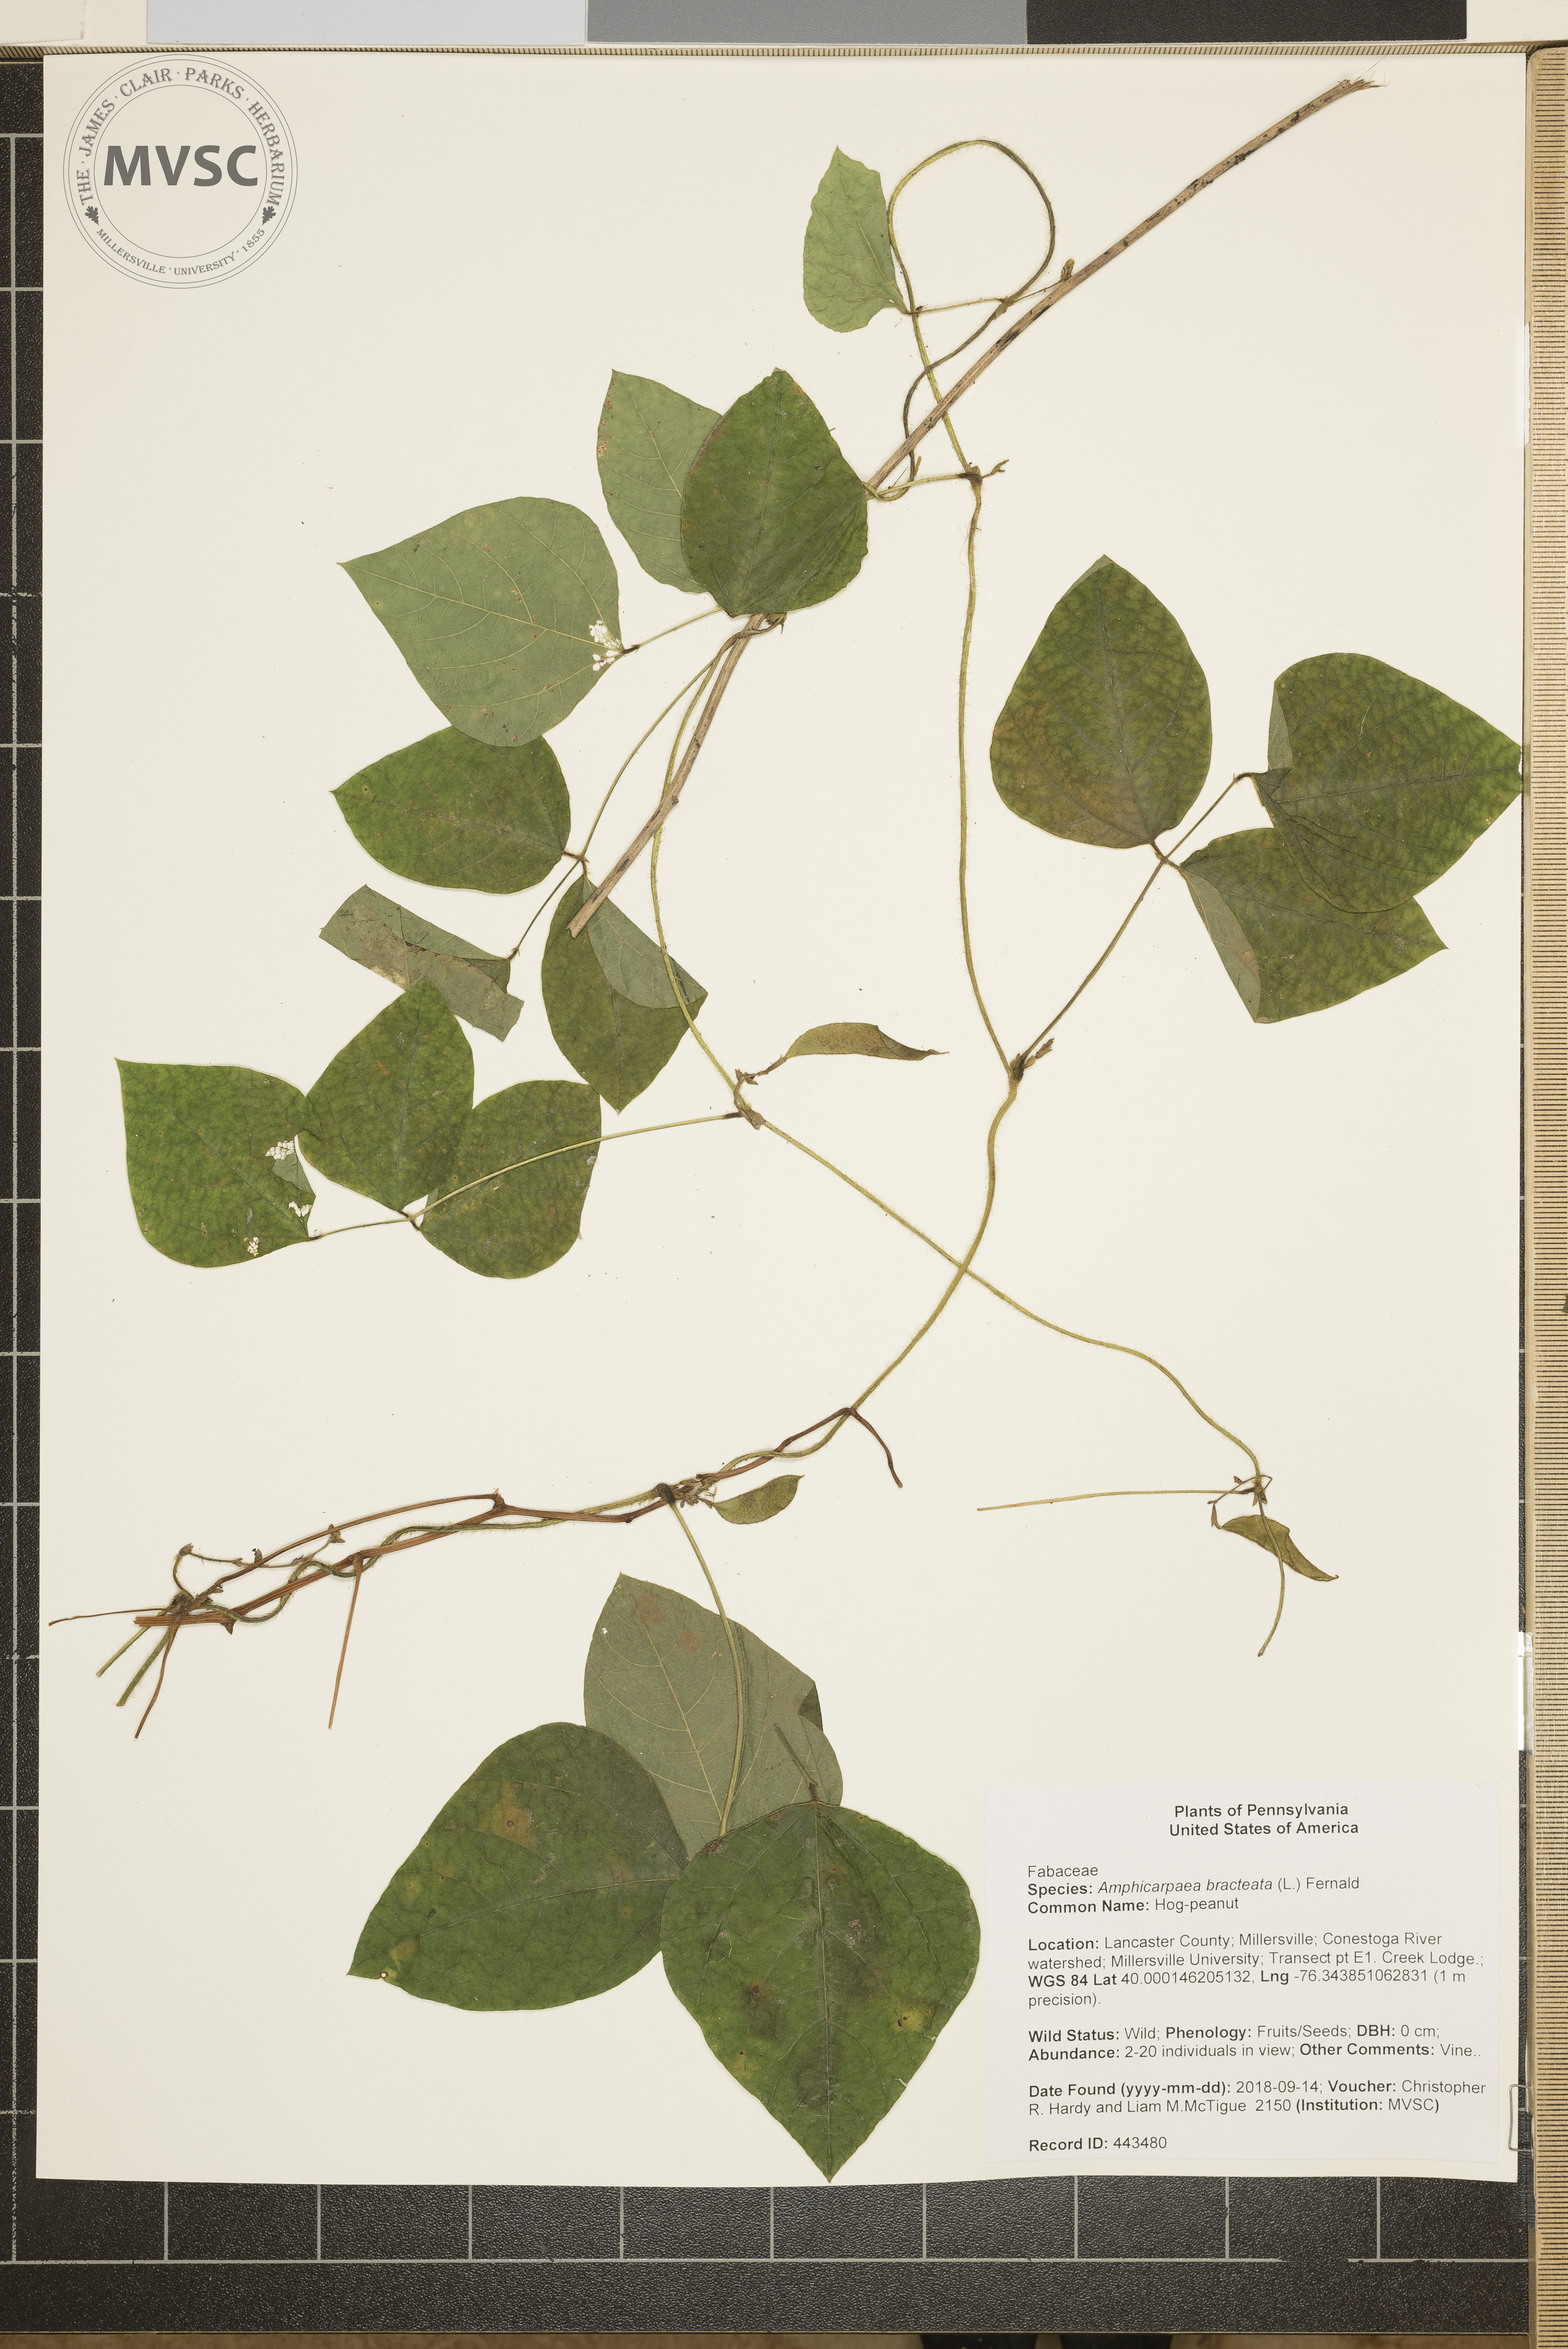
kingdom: Plantae
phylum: Tracheophyta
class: Magnoliopsida
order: Fabales
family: Fabaceae
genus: Amphicarpaea
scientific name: Amphicarpaea bracteata
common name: Hog-peanut
